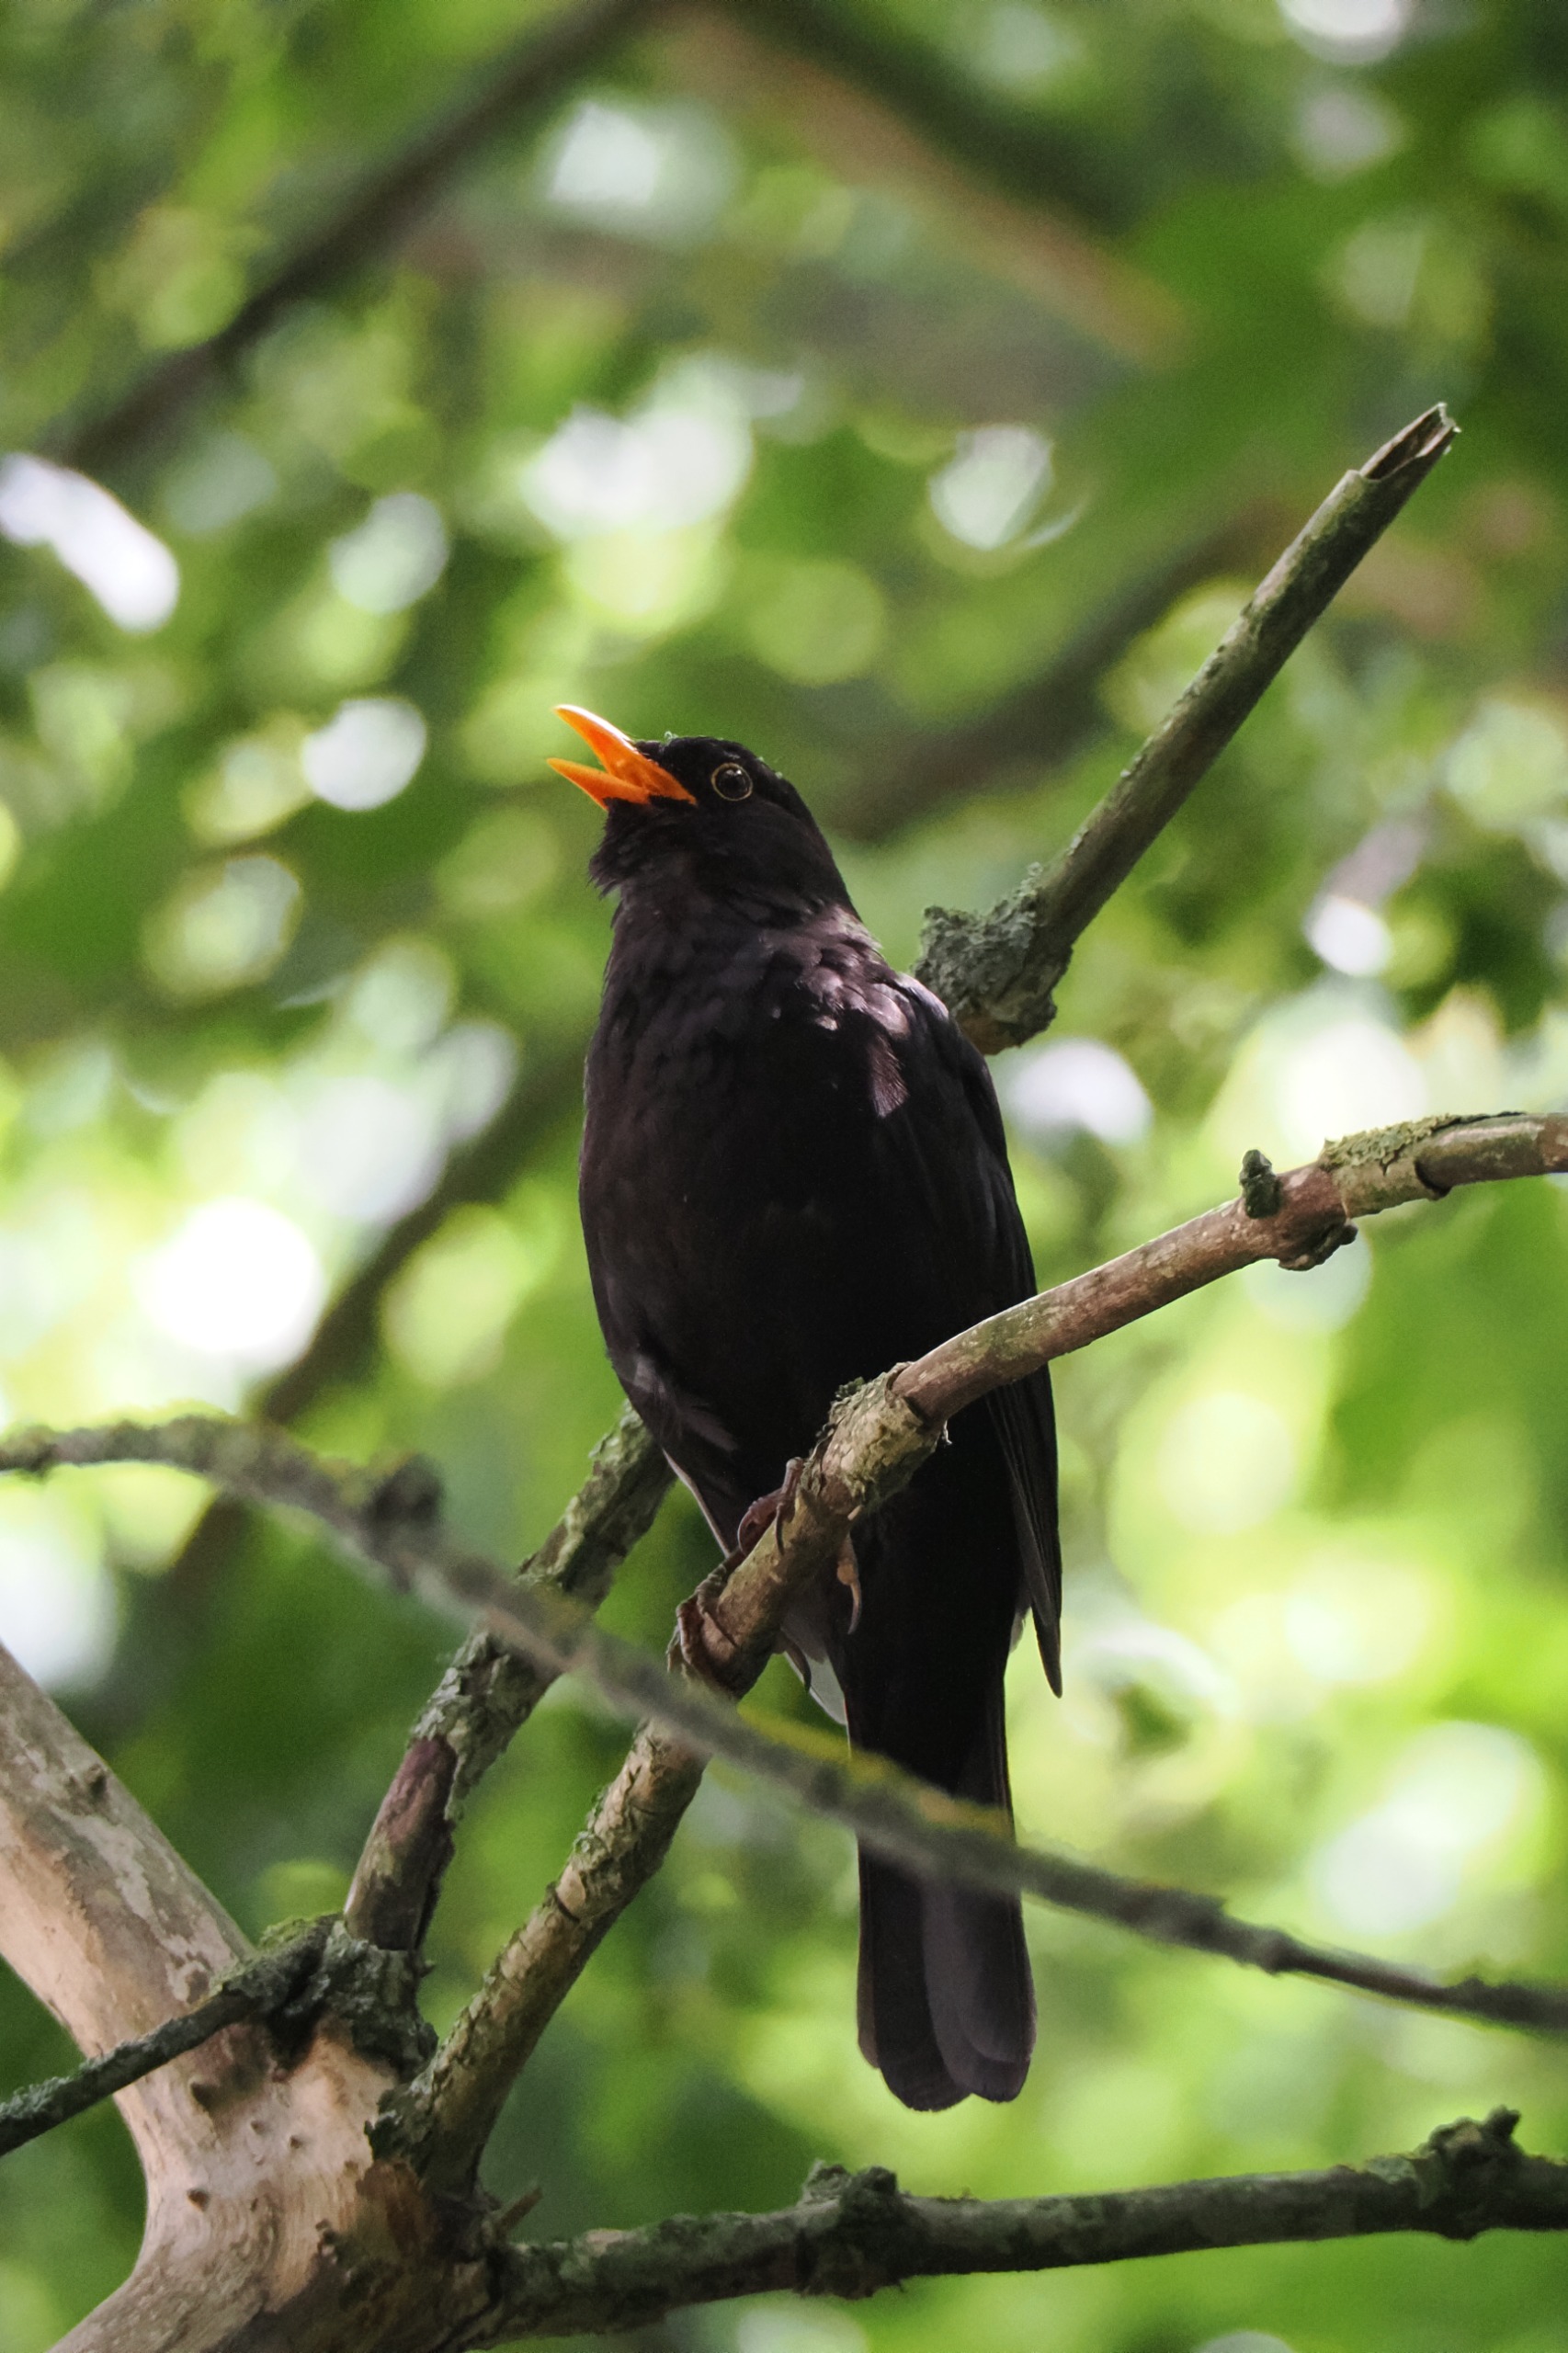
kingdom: Animalia
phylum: Chordata
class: Aves
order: Passeriformes
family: Turdidae
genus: Turdus
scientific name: Turdus merula
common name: Solsort
